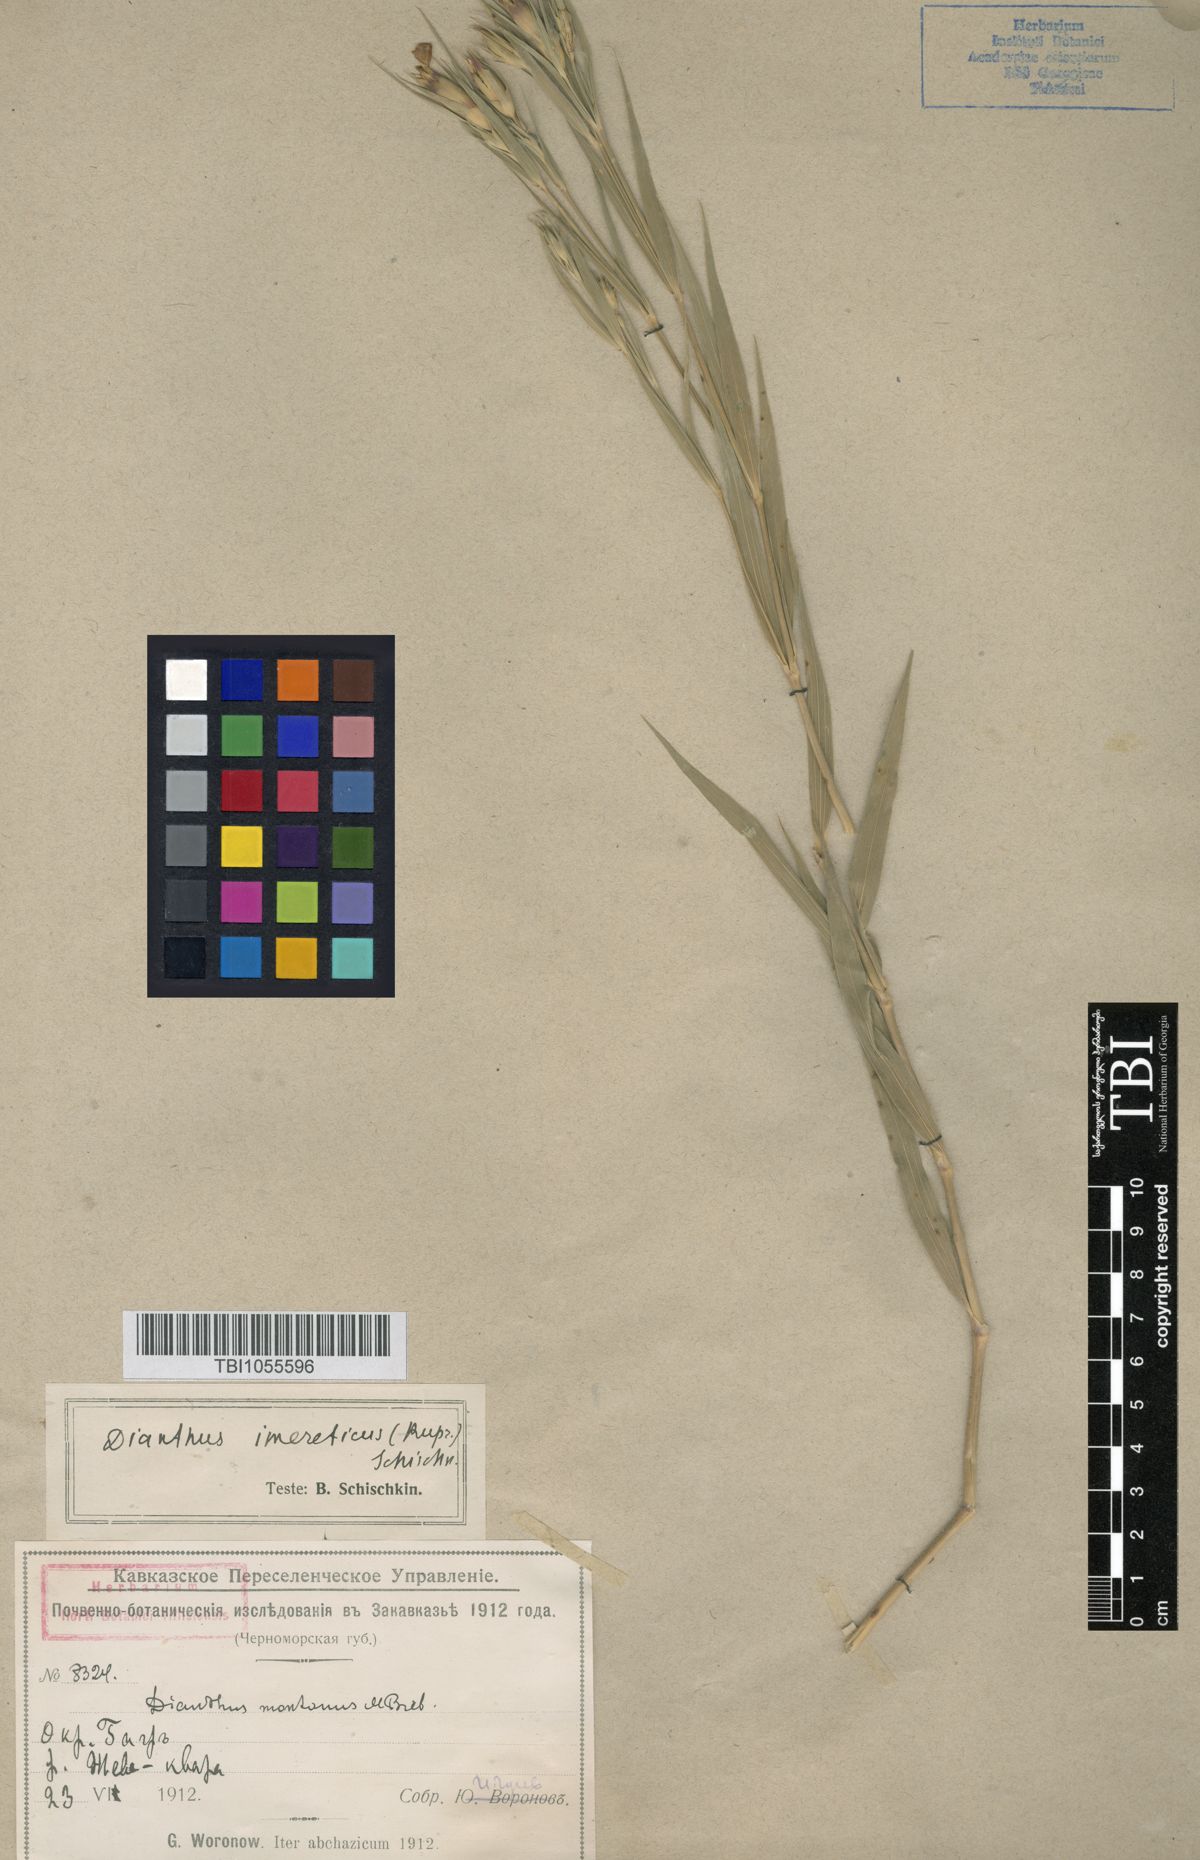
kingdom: Plantae
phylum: Tracheophyta
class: Magnoliopsida
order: Caryophyllales
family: Caryophyllaceae
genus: Dianthus
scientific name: Dianthus imereticus
